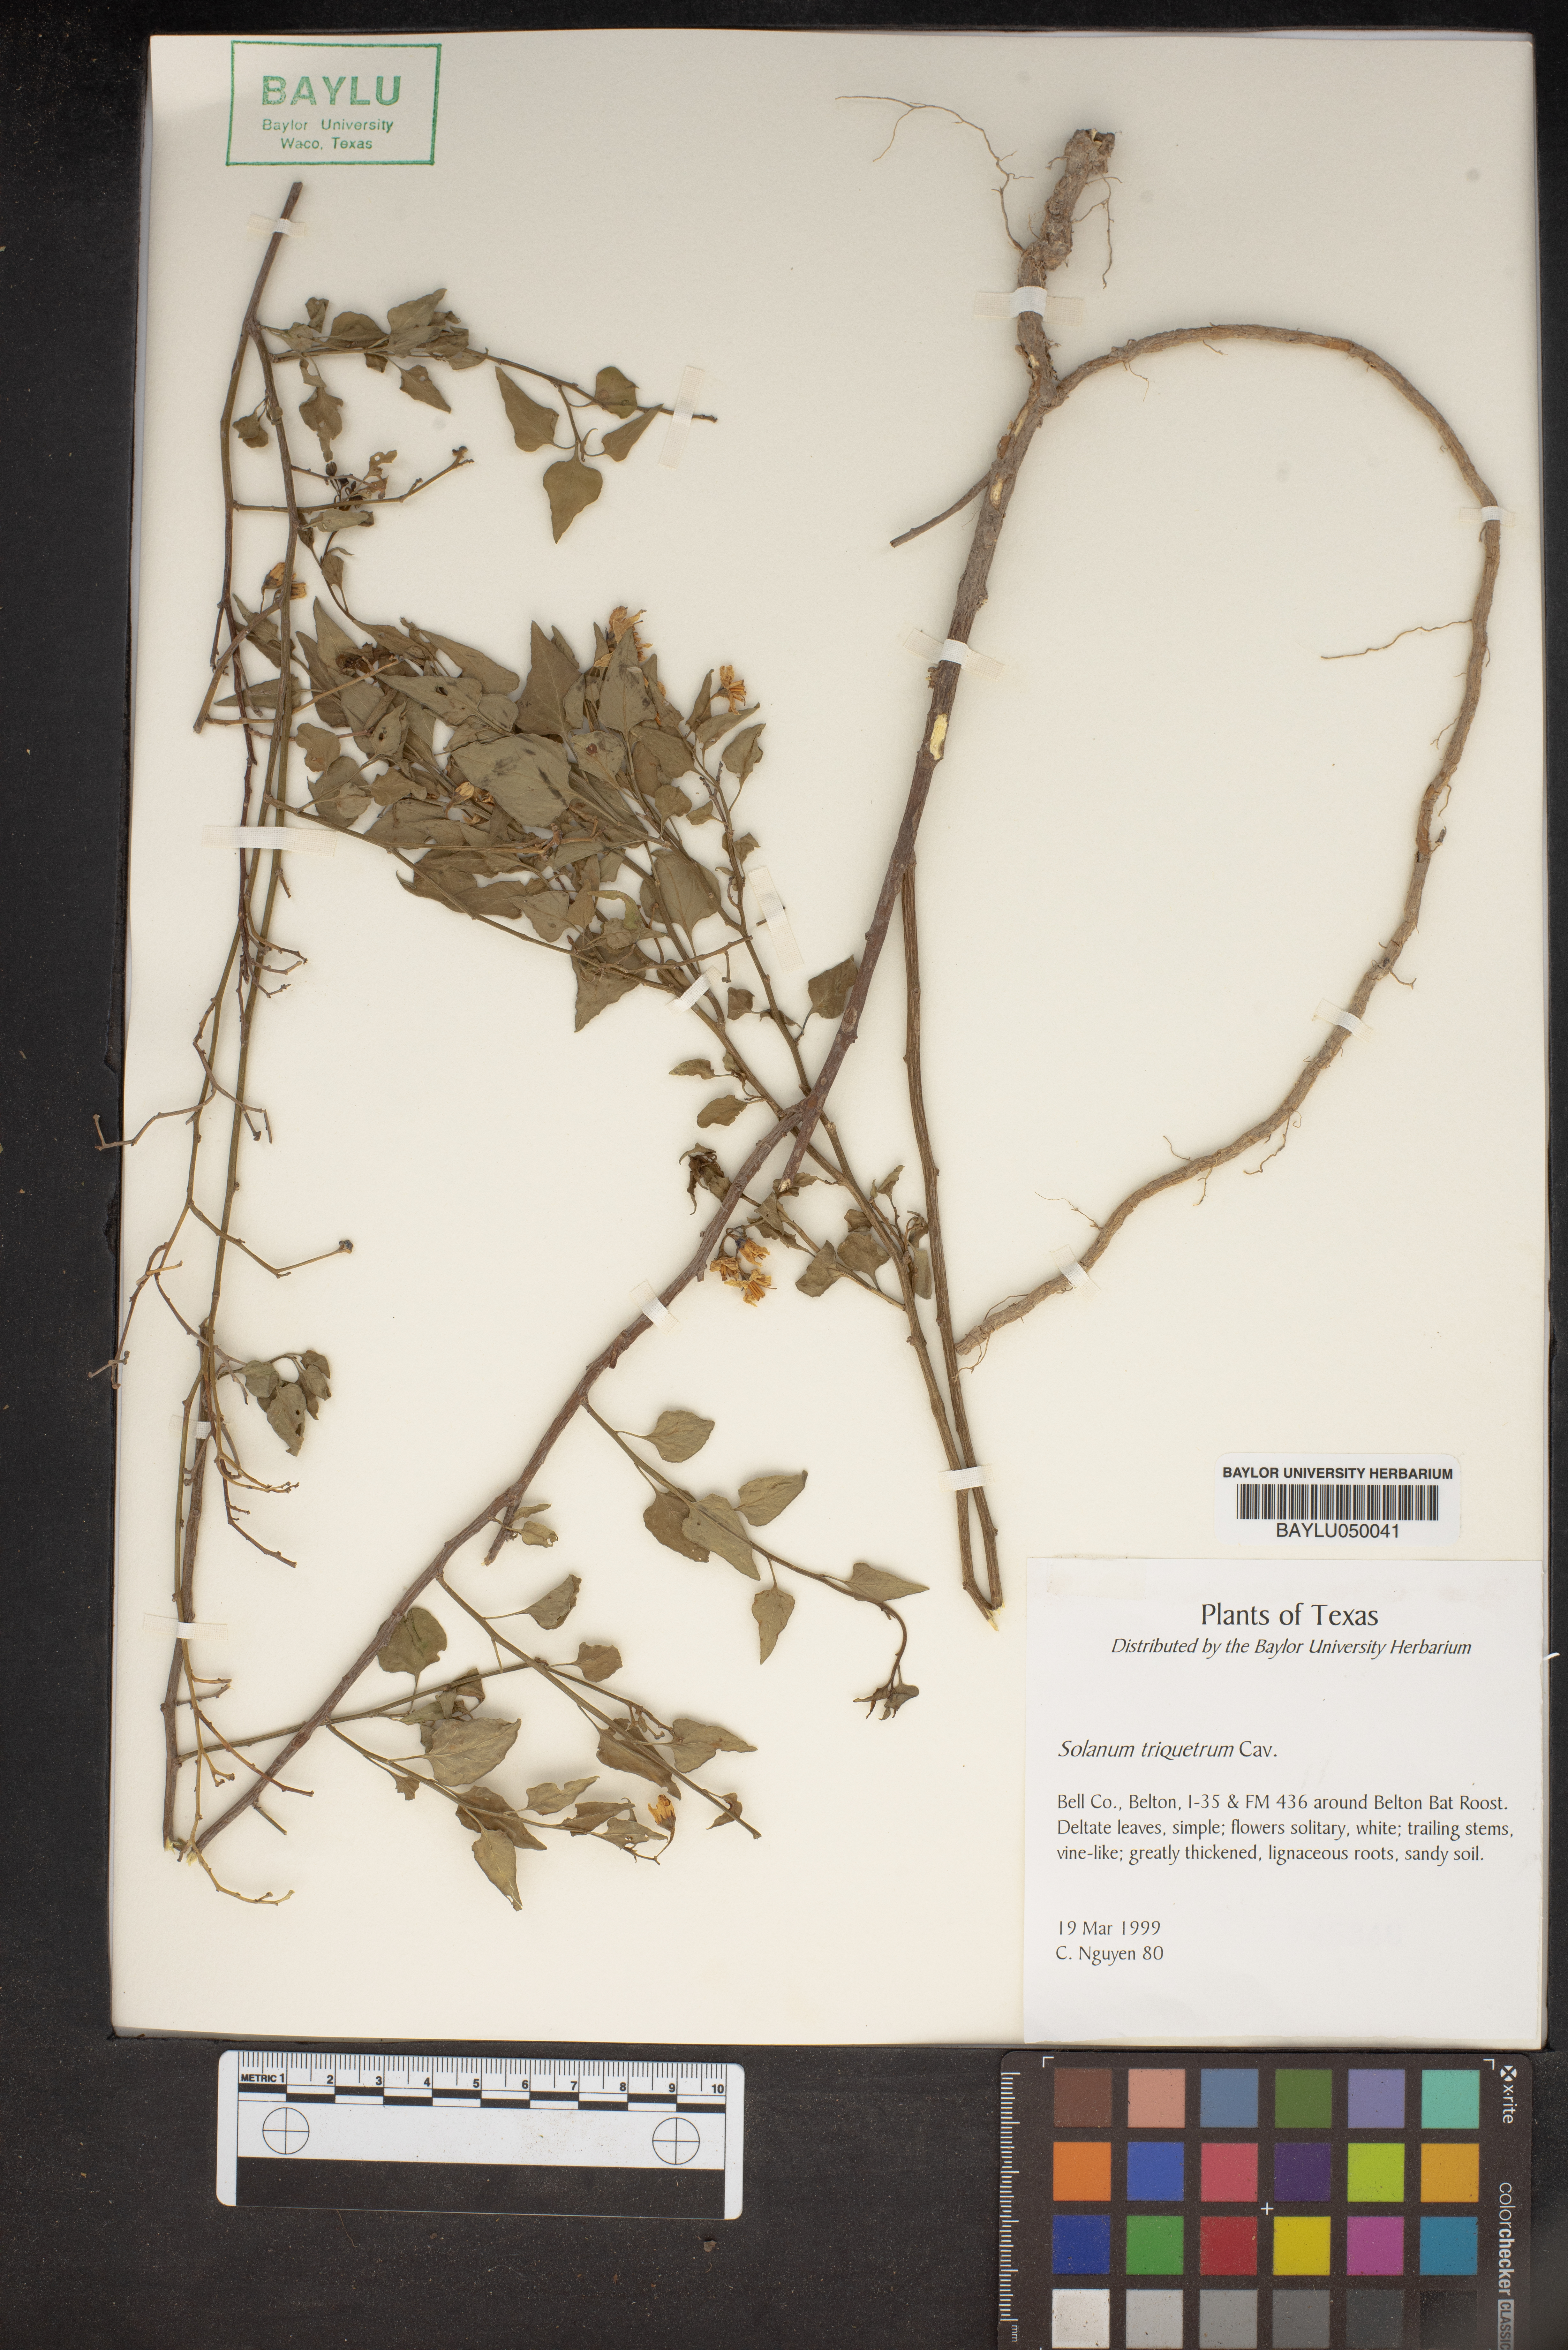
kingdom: Plantae
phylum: Tracheophyta
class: Magnoliopsida
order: Solanales
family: Solanaceae
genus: Solanum
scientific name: Solanum triquetrum
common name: Texas nightshade
